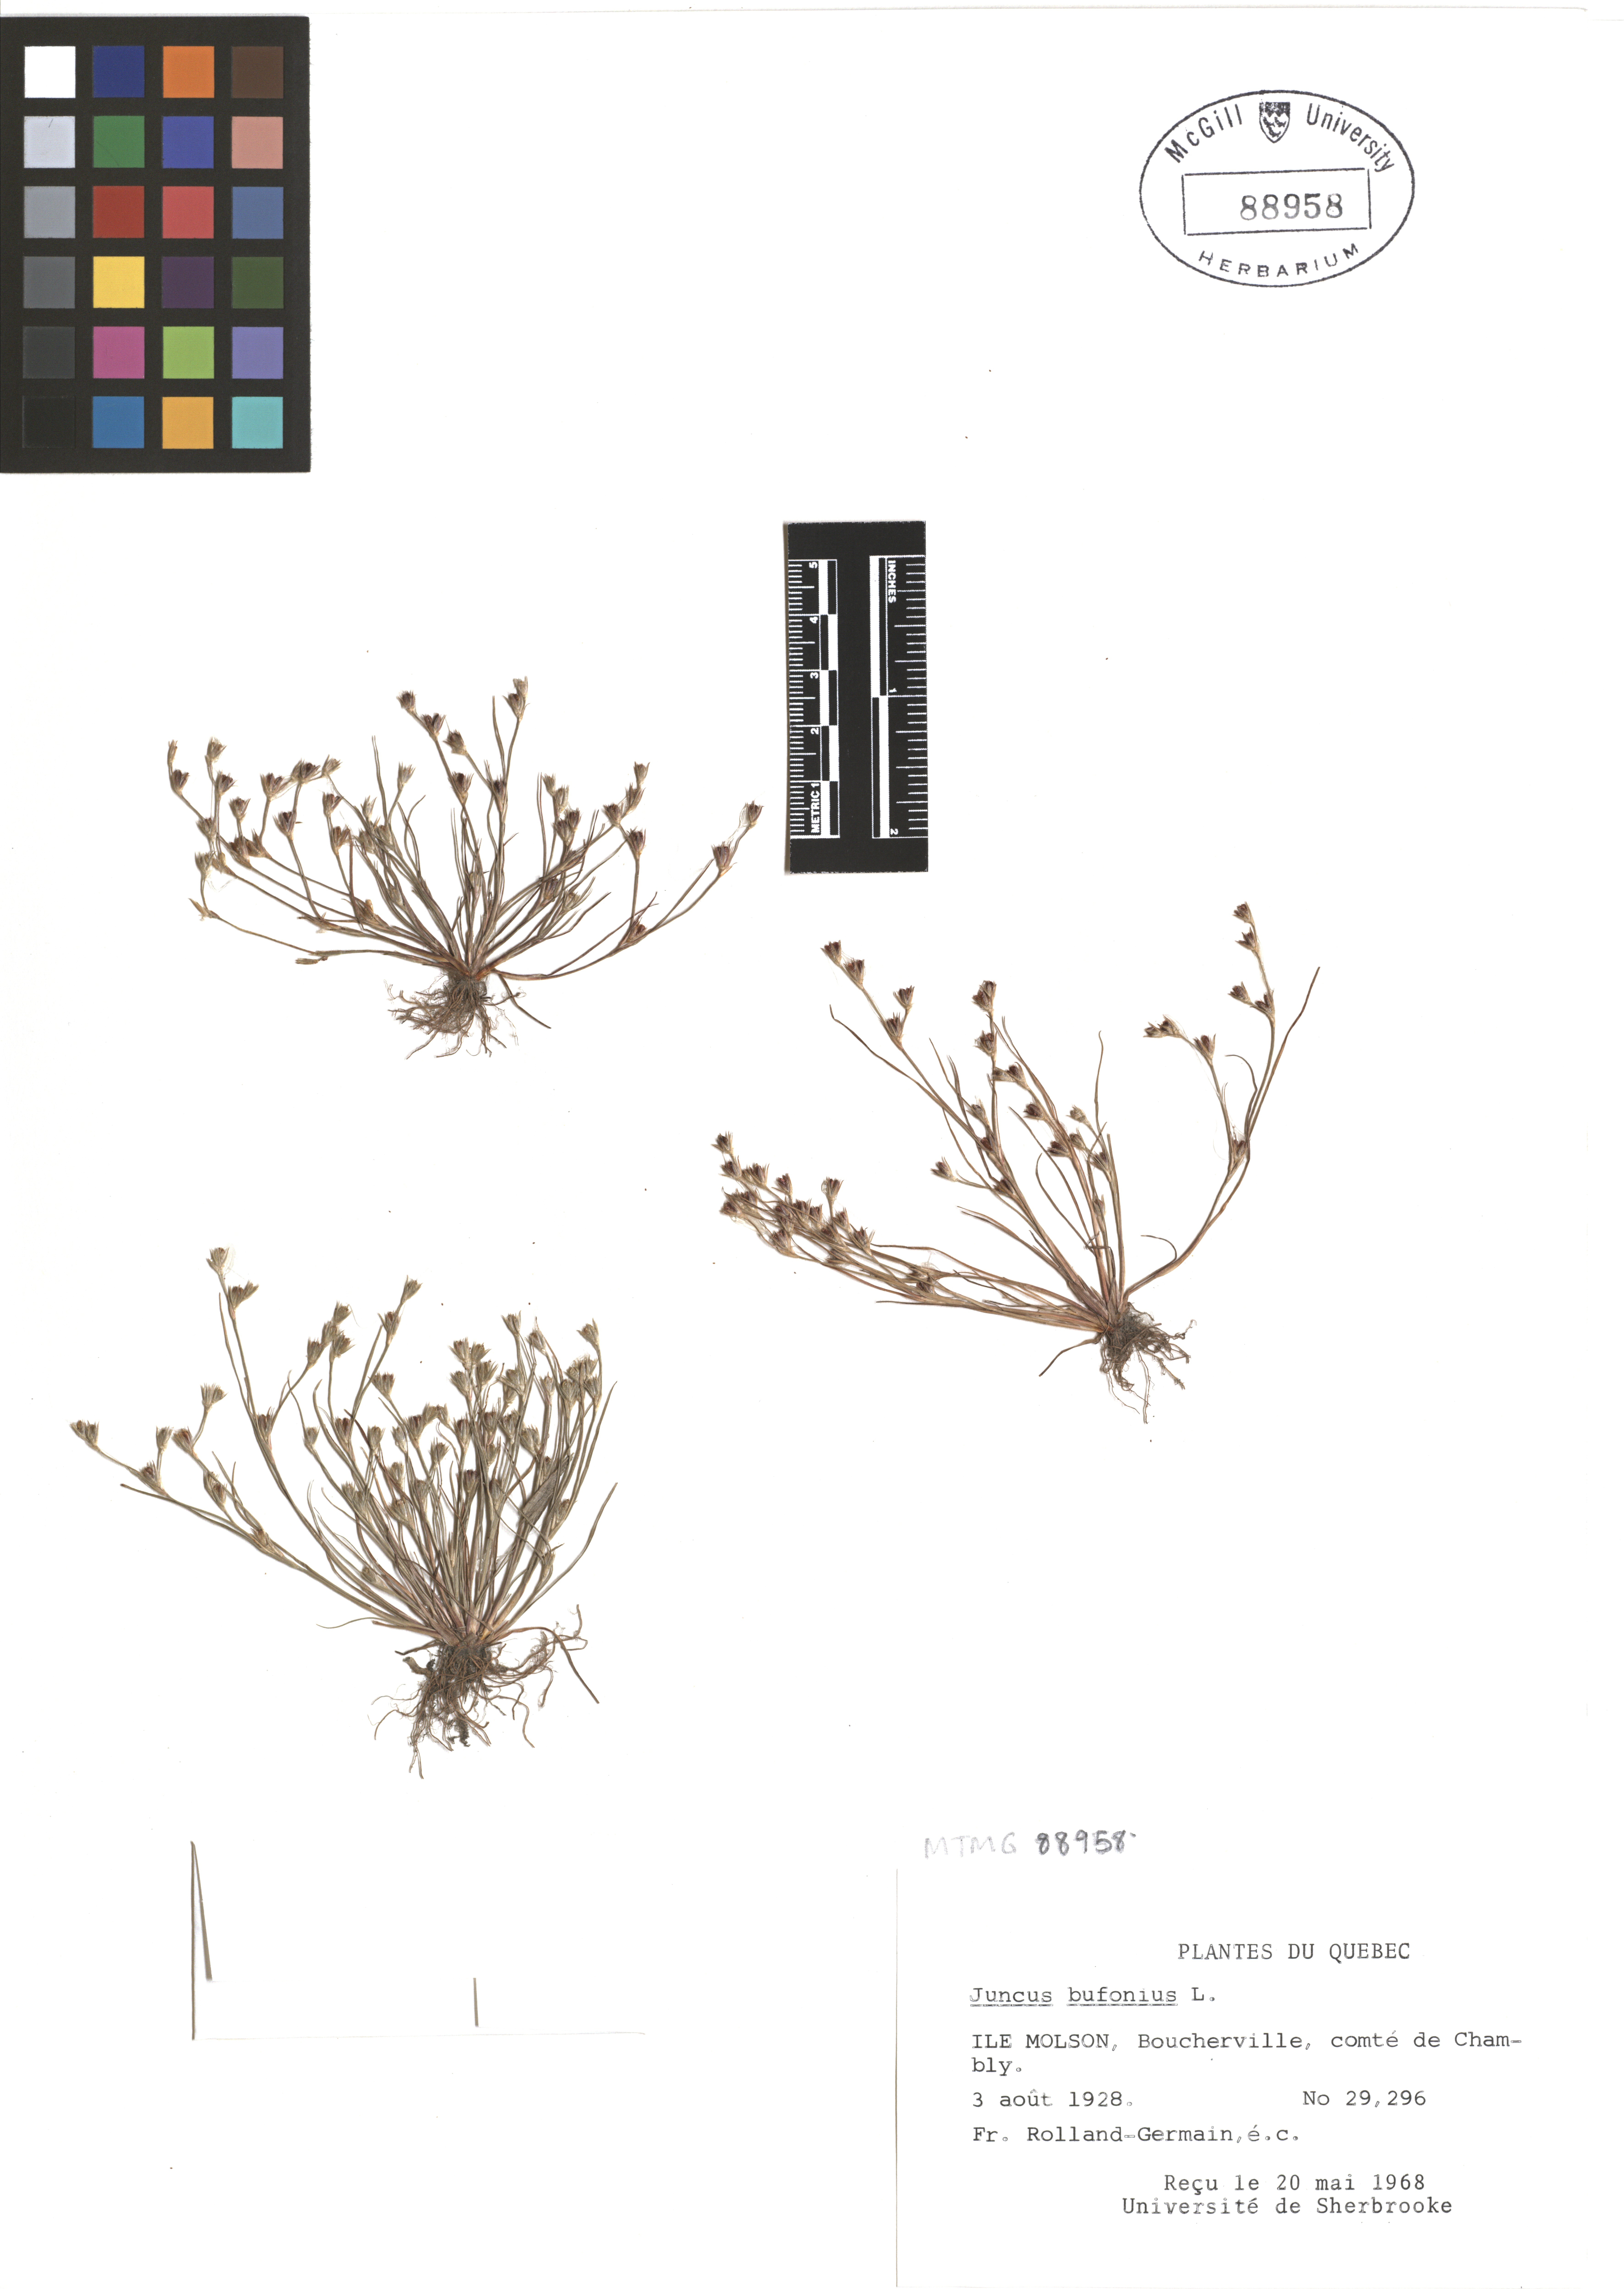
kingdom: Plantae
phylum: Tracheophyta
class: Liliopsida
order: Poales
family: Juncaceae
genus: Juncus
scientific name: Juncus bufonius
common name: Toad rush
